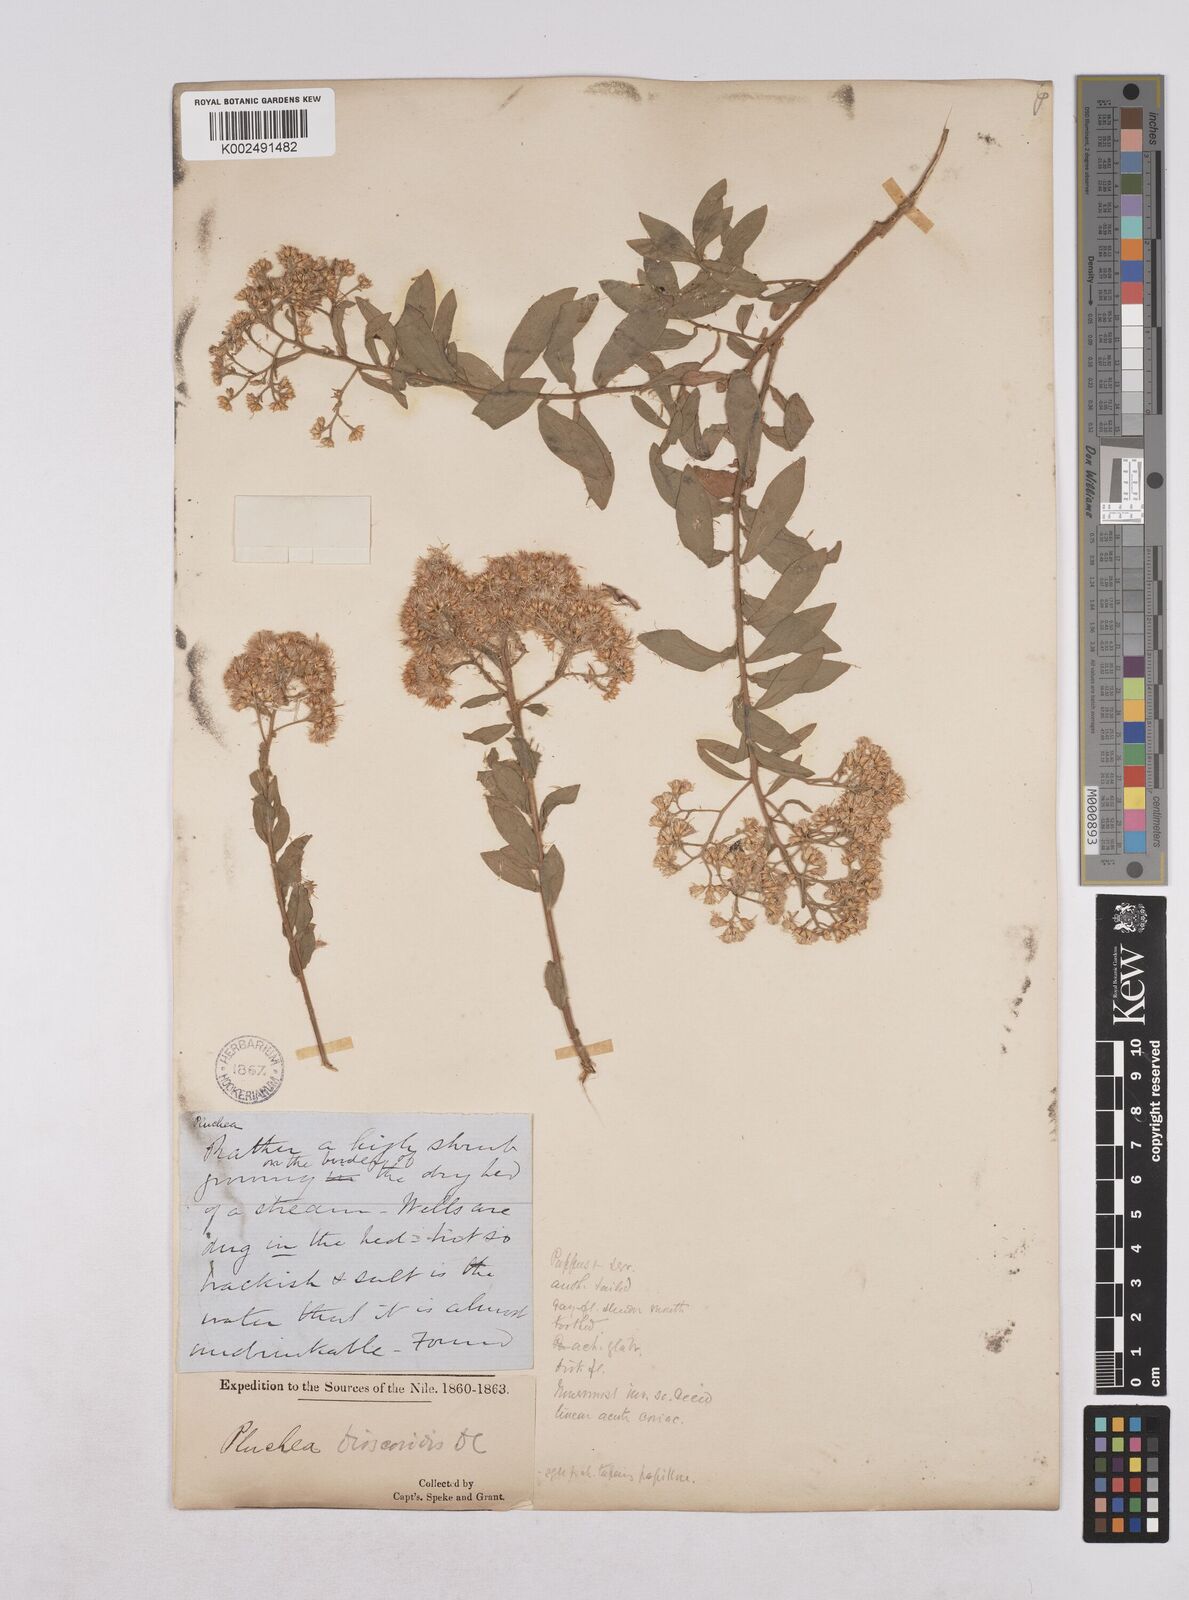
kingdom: Plantae
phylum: Tracheophyta
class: Magnoliopsida
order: Asterales
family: Asteraceae
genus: Pluchea
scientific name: Pluchea dioscoridis
